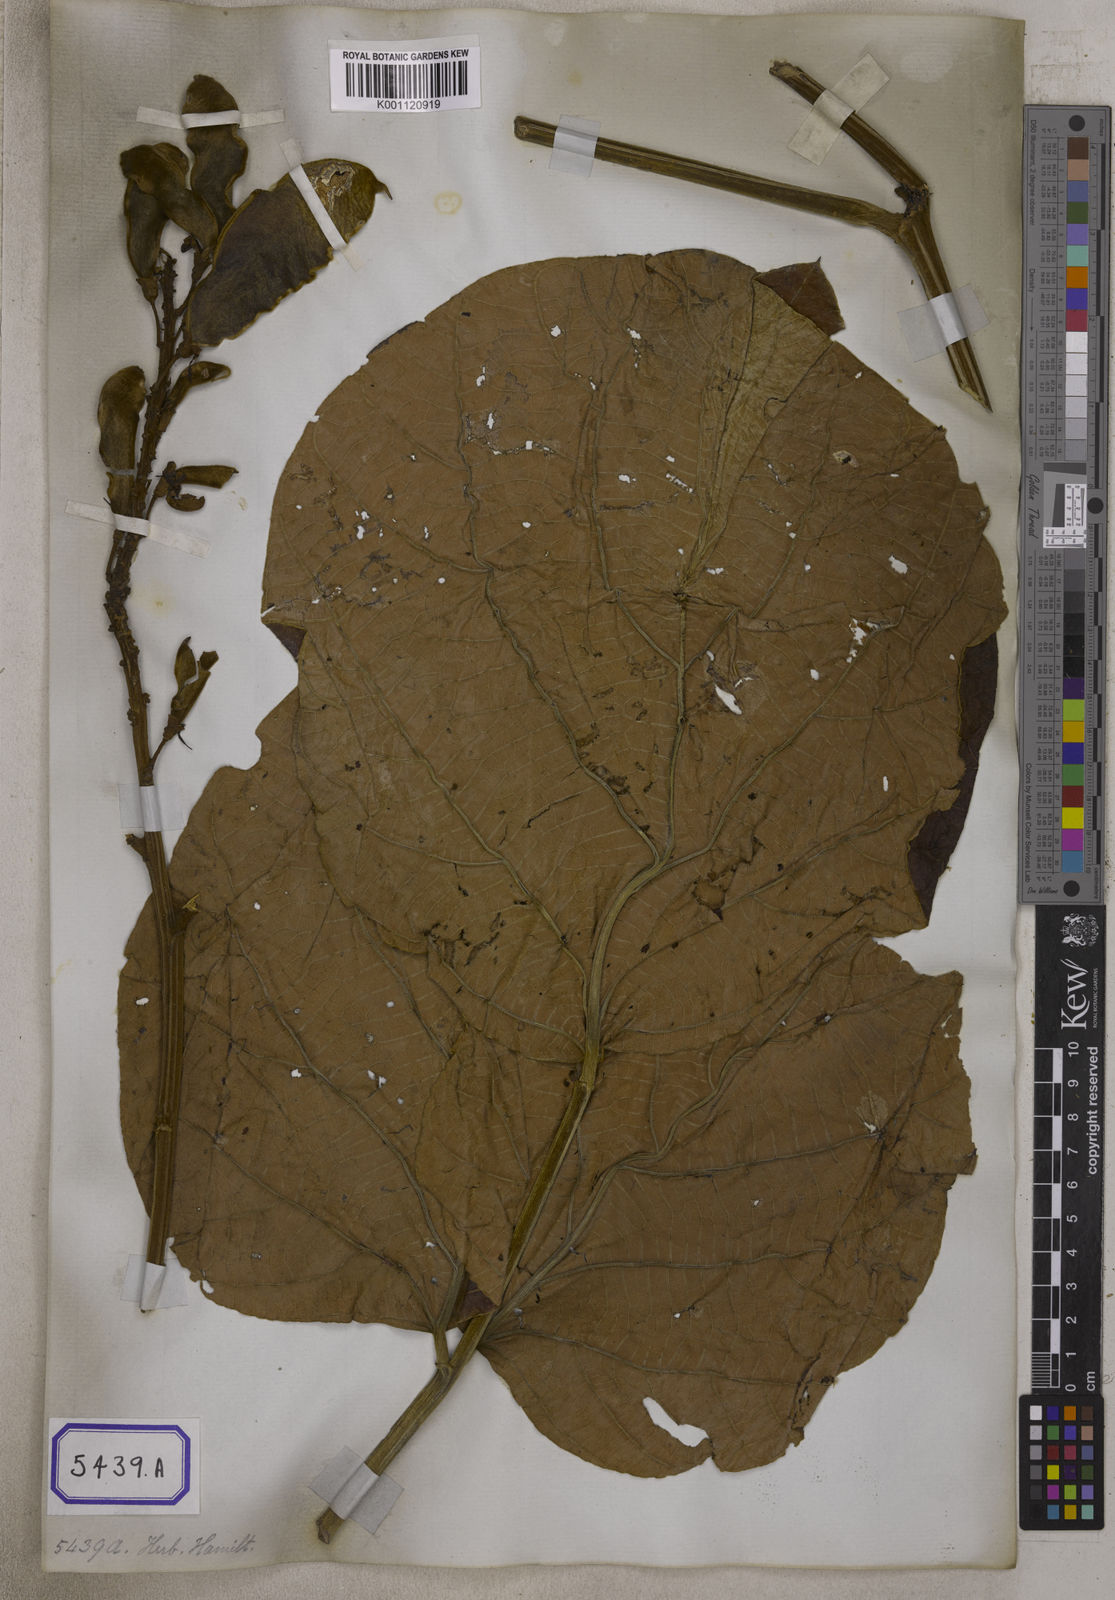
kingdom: Plantae
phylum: Tracheophyta
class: Magnoliopsida
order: Fabales
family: Fabaceae
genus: Butea
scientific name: Butea
